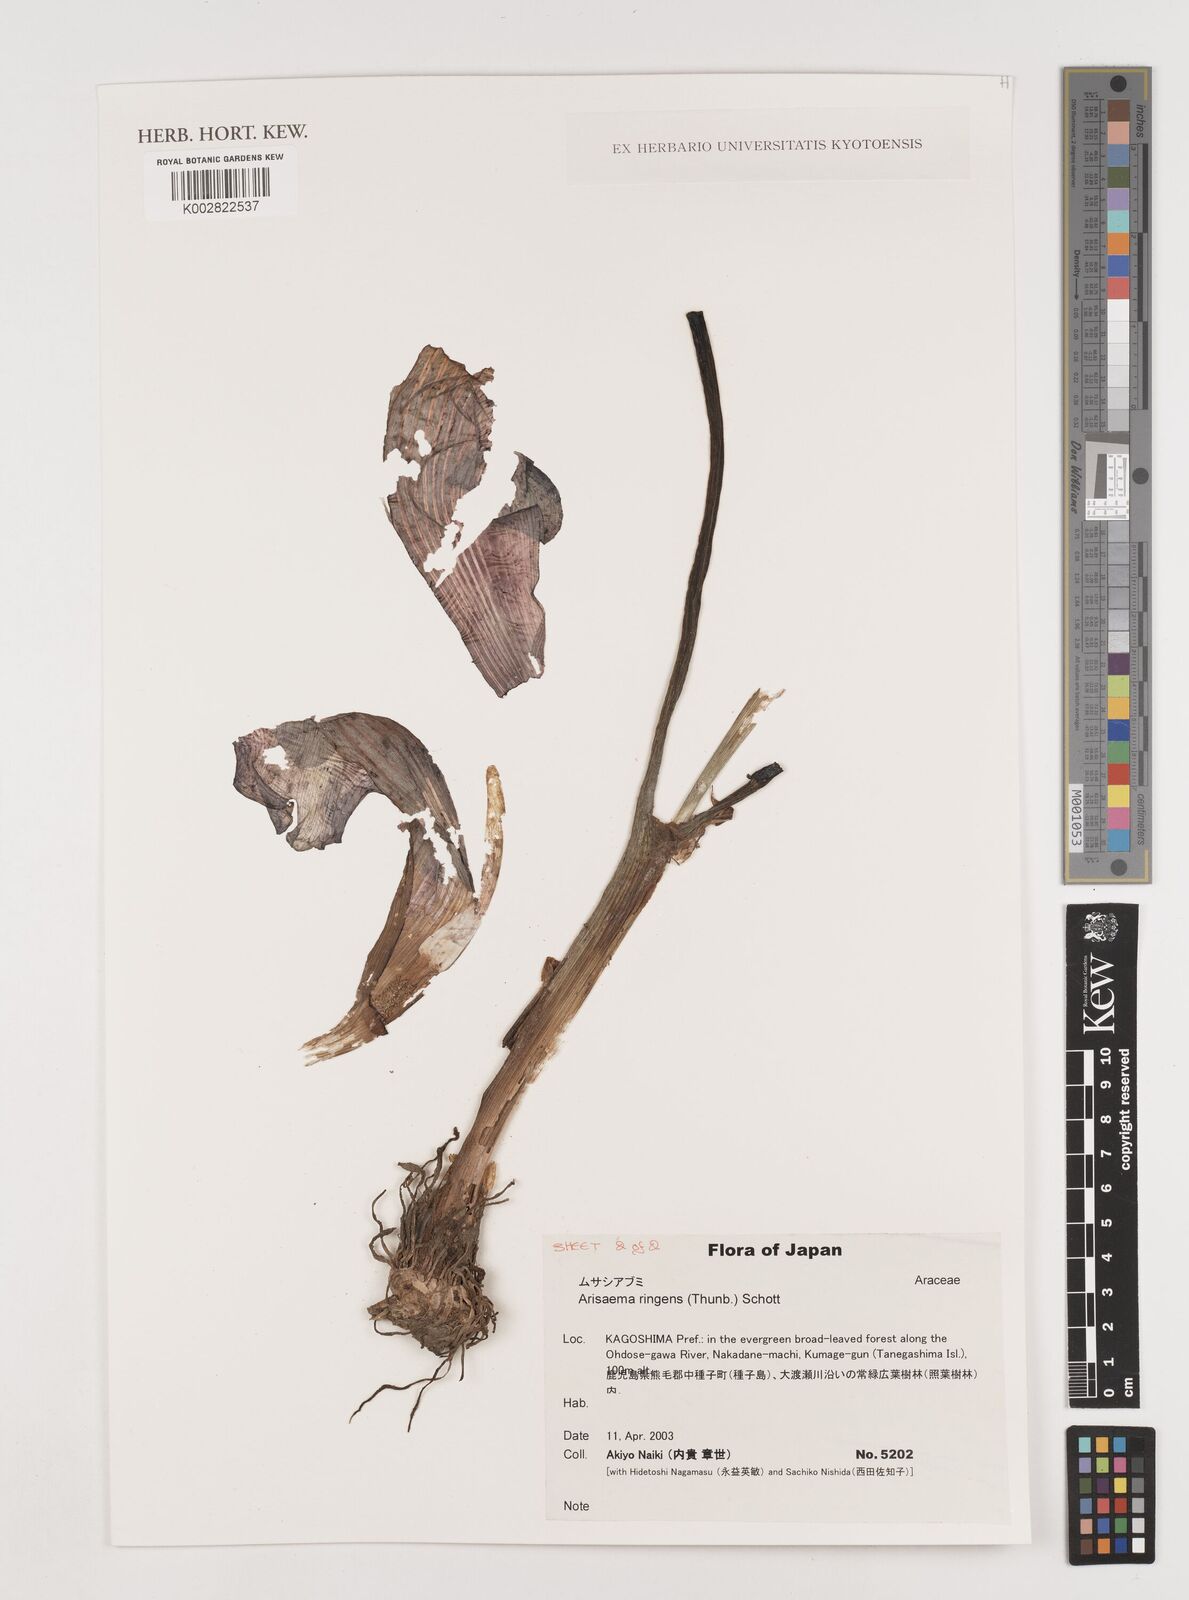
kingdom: Plantae
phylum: Tracheophyta
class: Liliopsida
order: Alismatales
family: Araceae
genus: Arisaema
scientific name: Arisaema ringens
